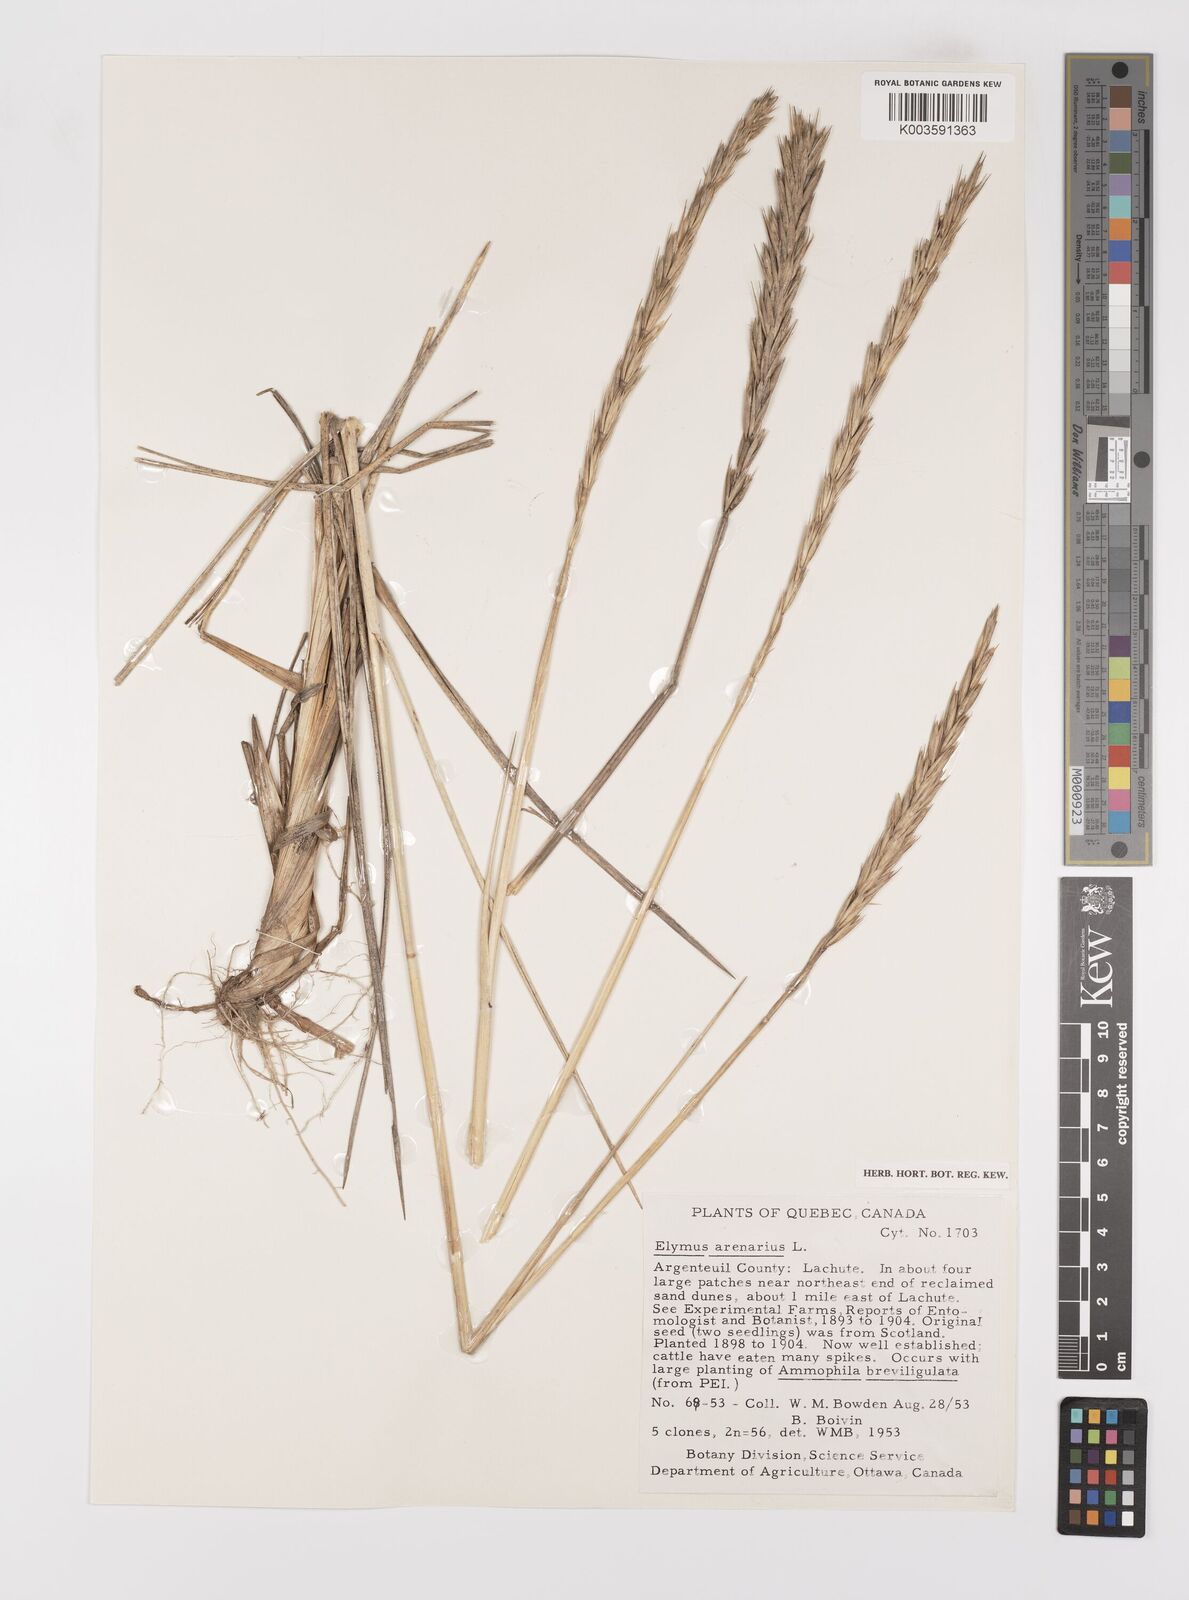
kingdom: Plantae
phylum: Tracheophyta
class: Liliopsida
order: Poales
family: Poaceae
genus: Leymus
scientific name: Leymus arenarius
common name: Lyme-grass
